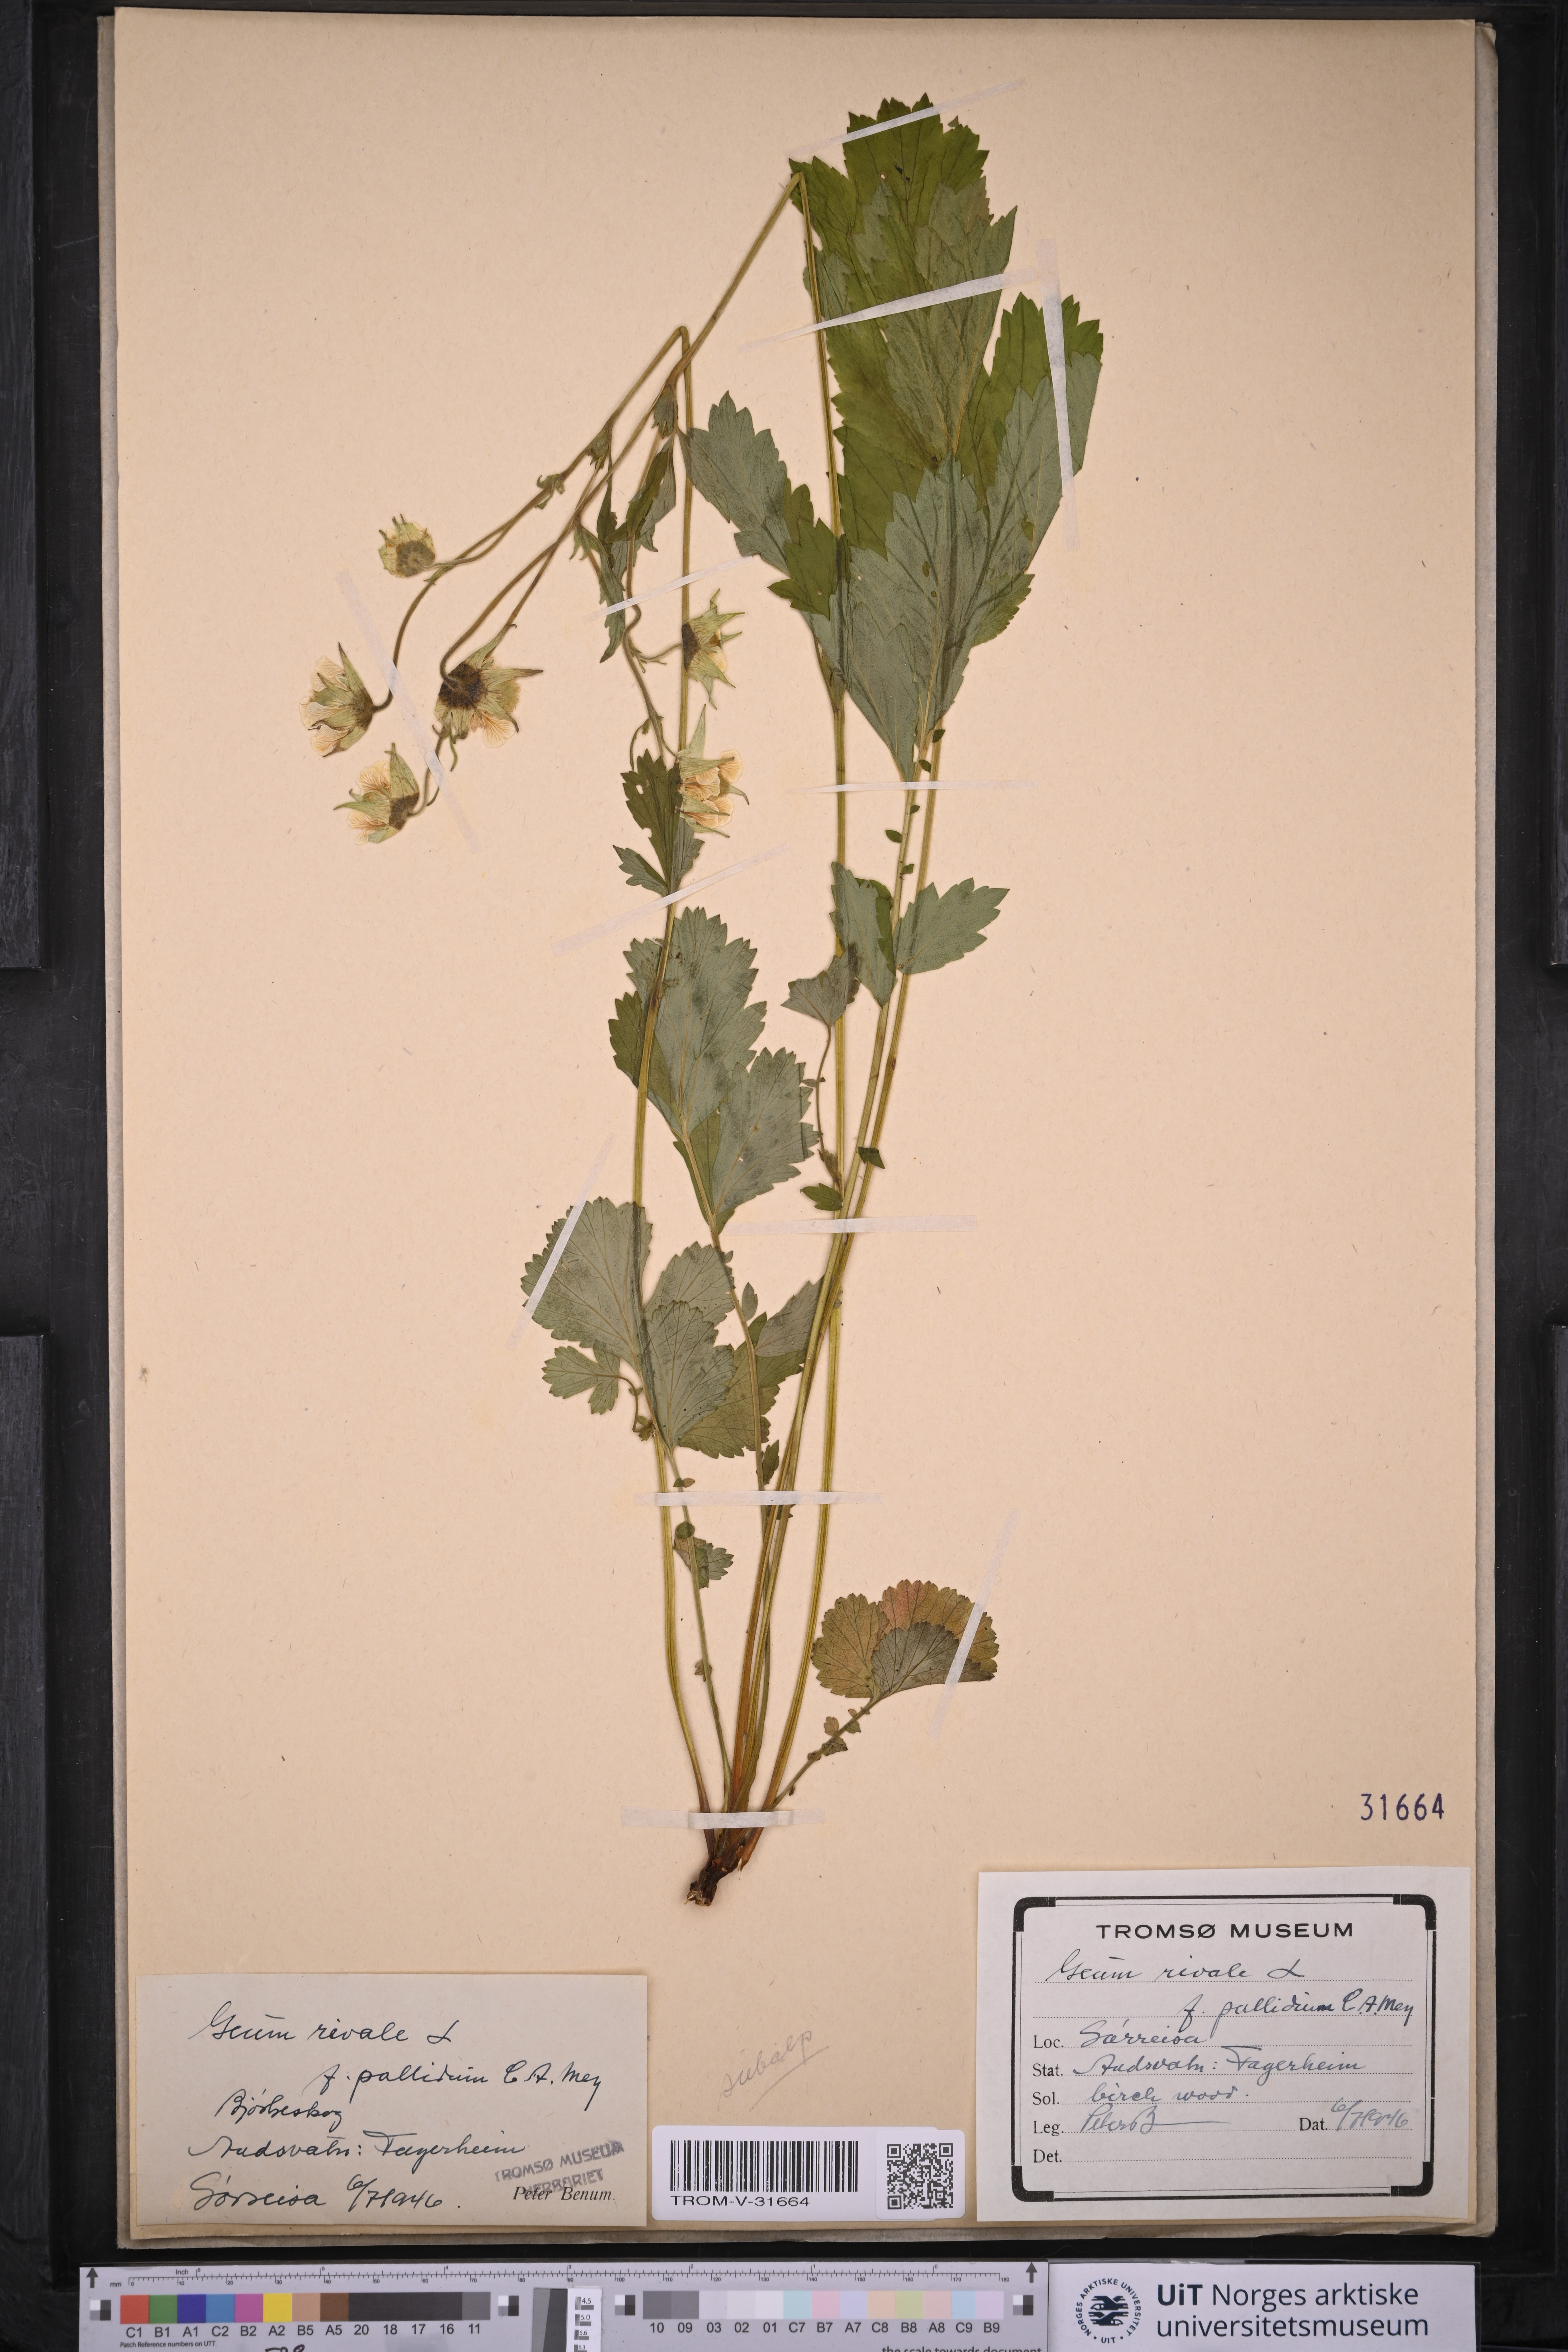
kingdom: Plantae
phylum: Tracheophyta
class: Magnoliopsida
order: Rosales
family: Rosaceae
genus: Geum
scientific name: Geum rivale
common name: Water avens
